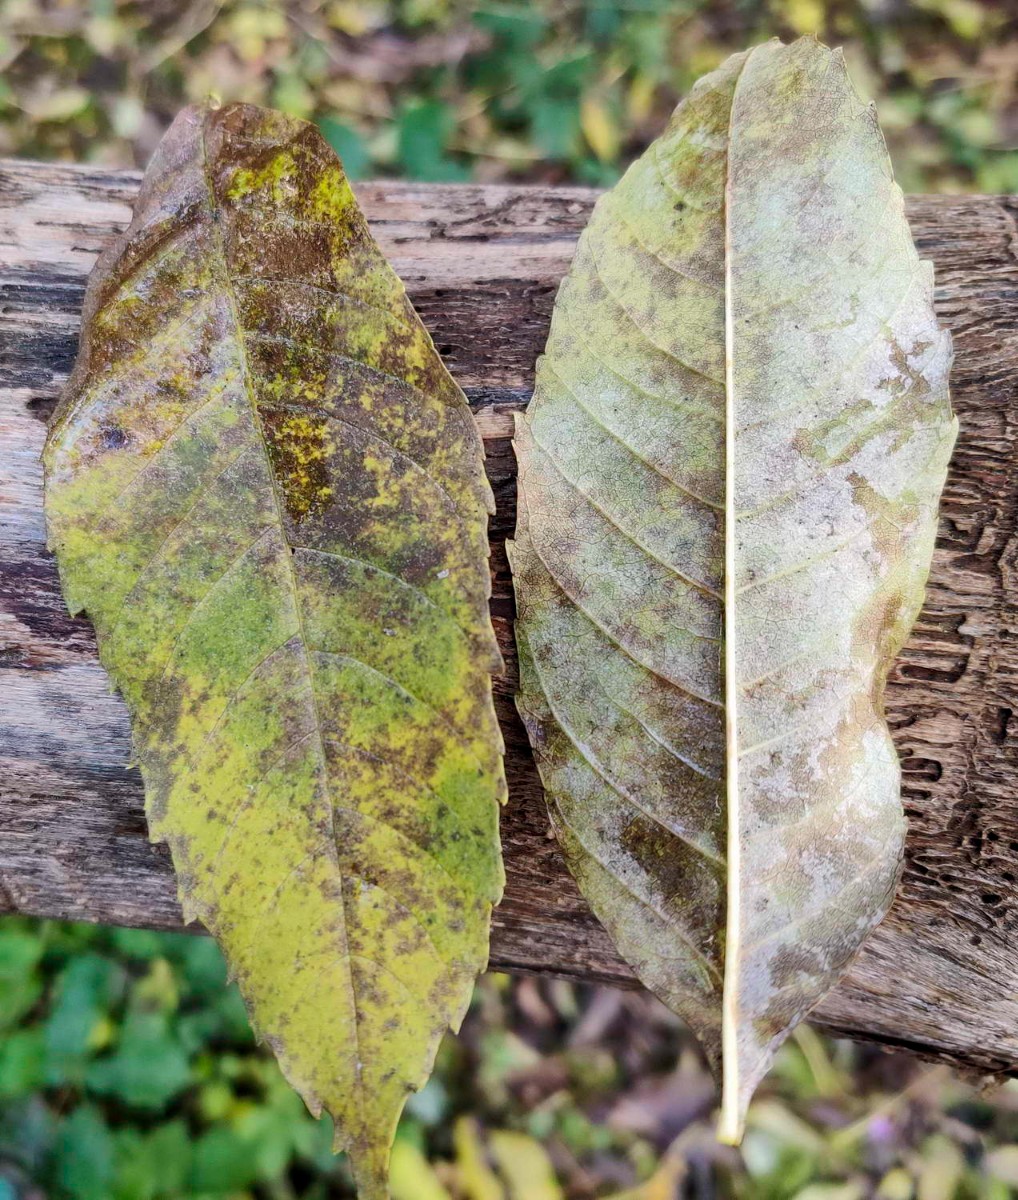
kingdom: Fungi
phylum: Ascomycota
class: Leotiomycetes
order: Helotiales
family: Erysiphaceae
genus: Phyllactinia
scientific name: Phyllactinia fraxini
